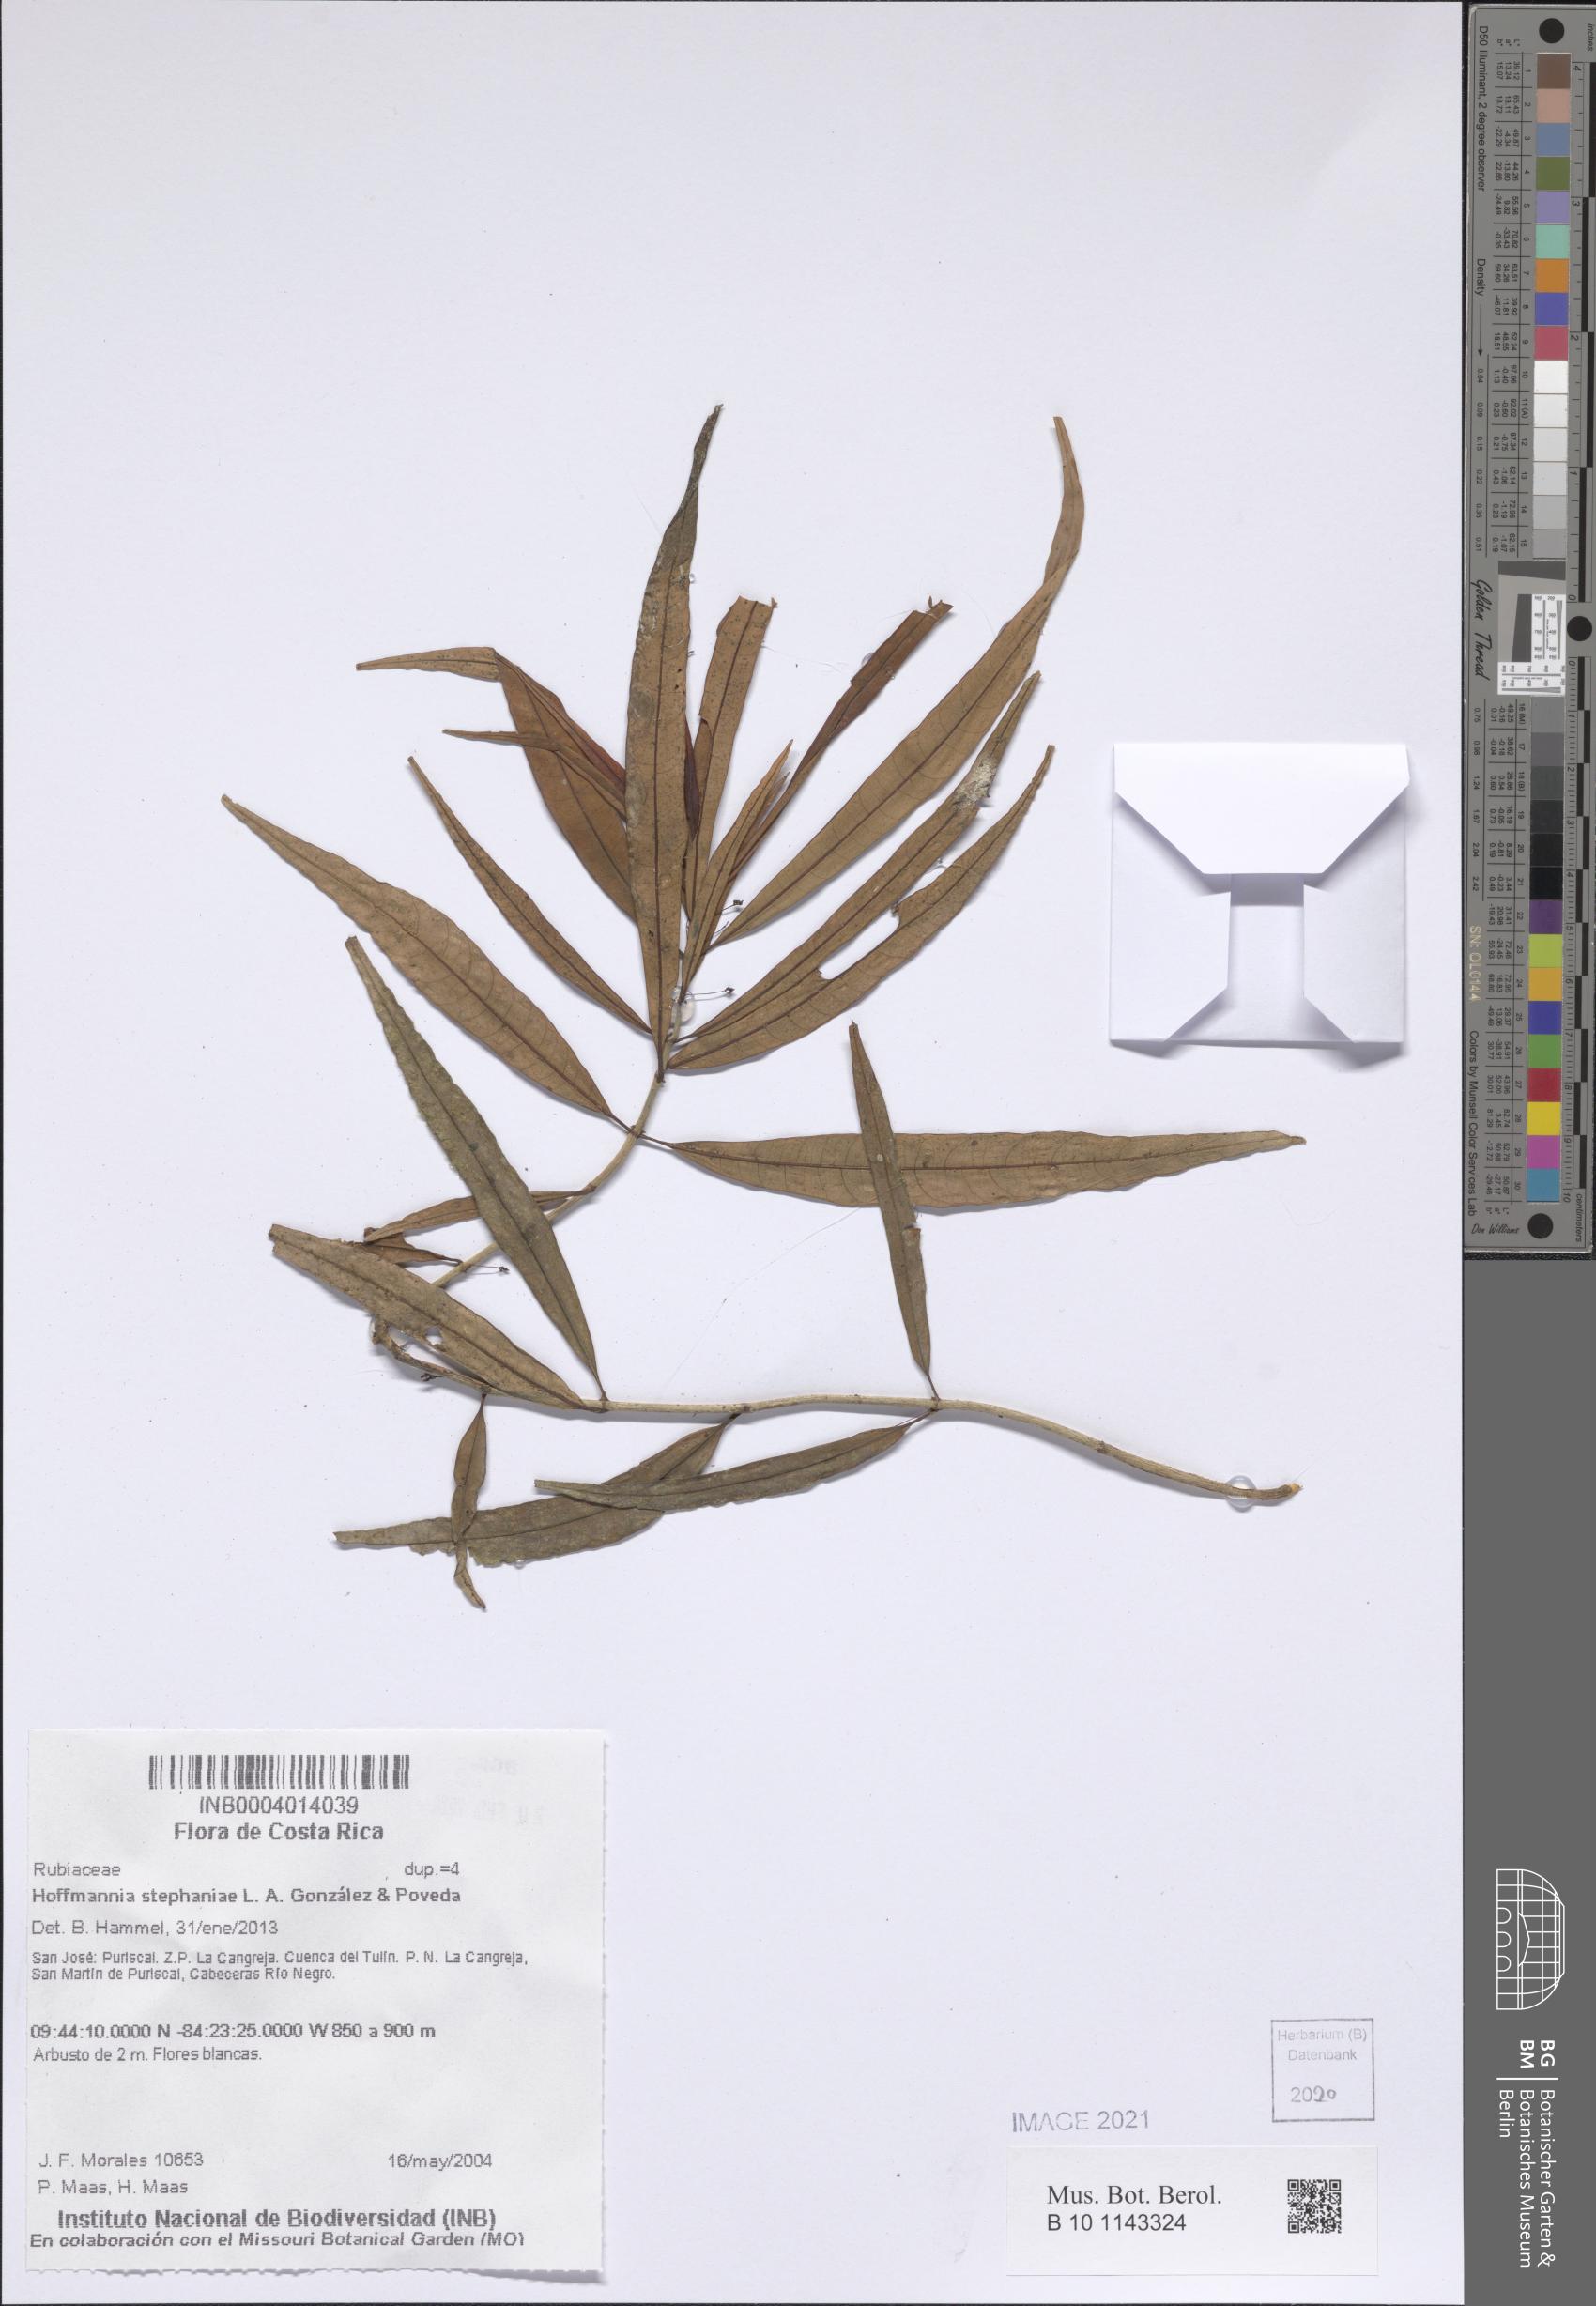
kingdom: Plantae
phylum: Tracheophyta
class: Magnoliopsida
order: Gentianales
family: Rubiaceae
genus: Hoffmannia
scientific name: Hoffmannia stephaniae
